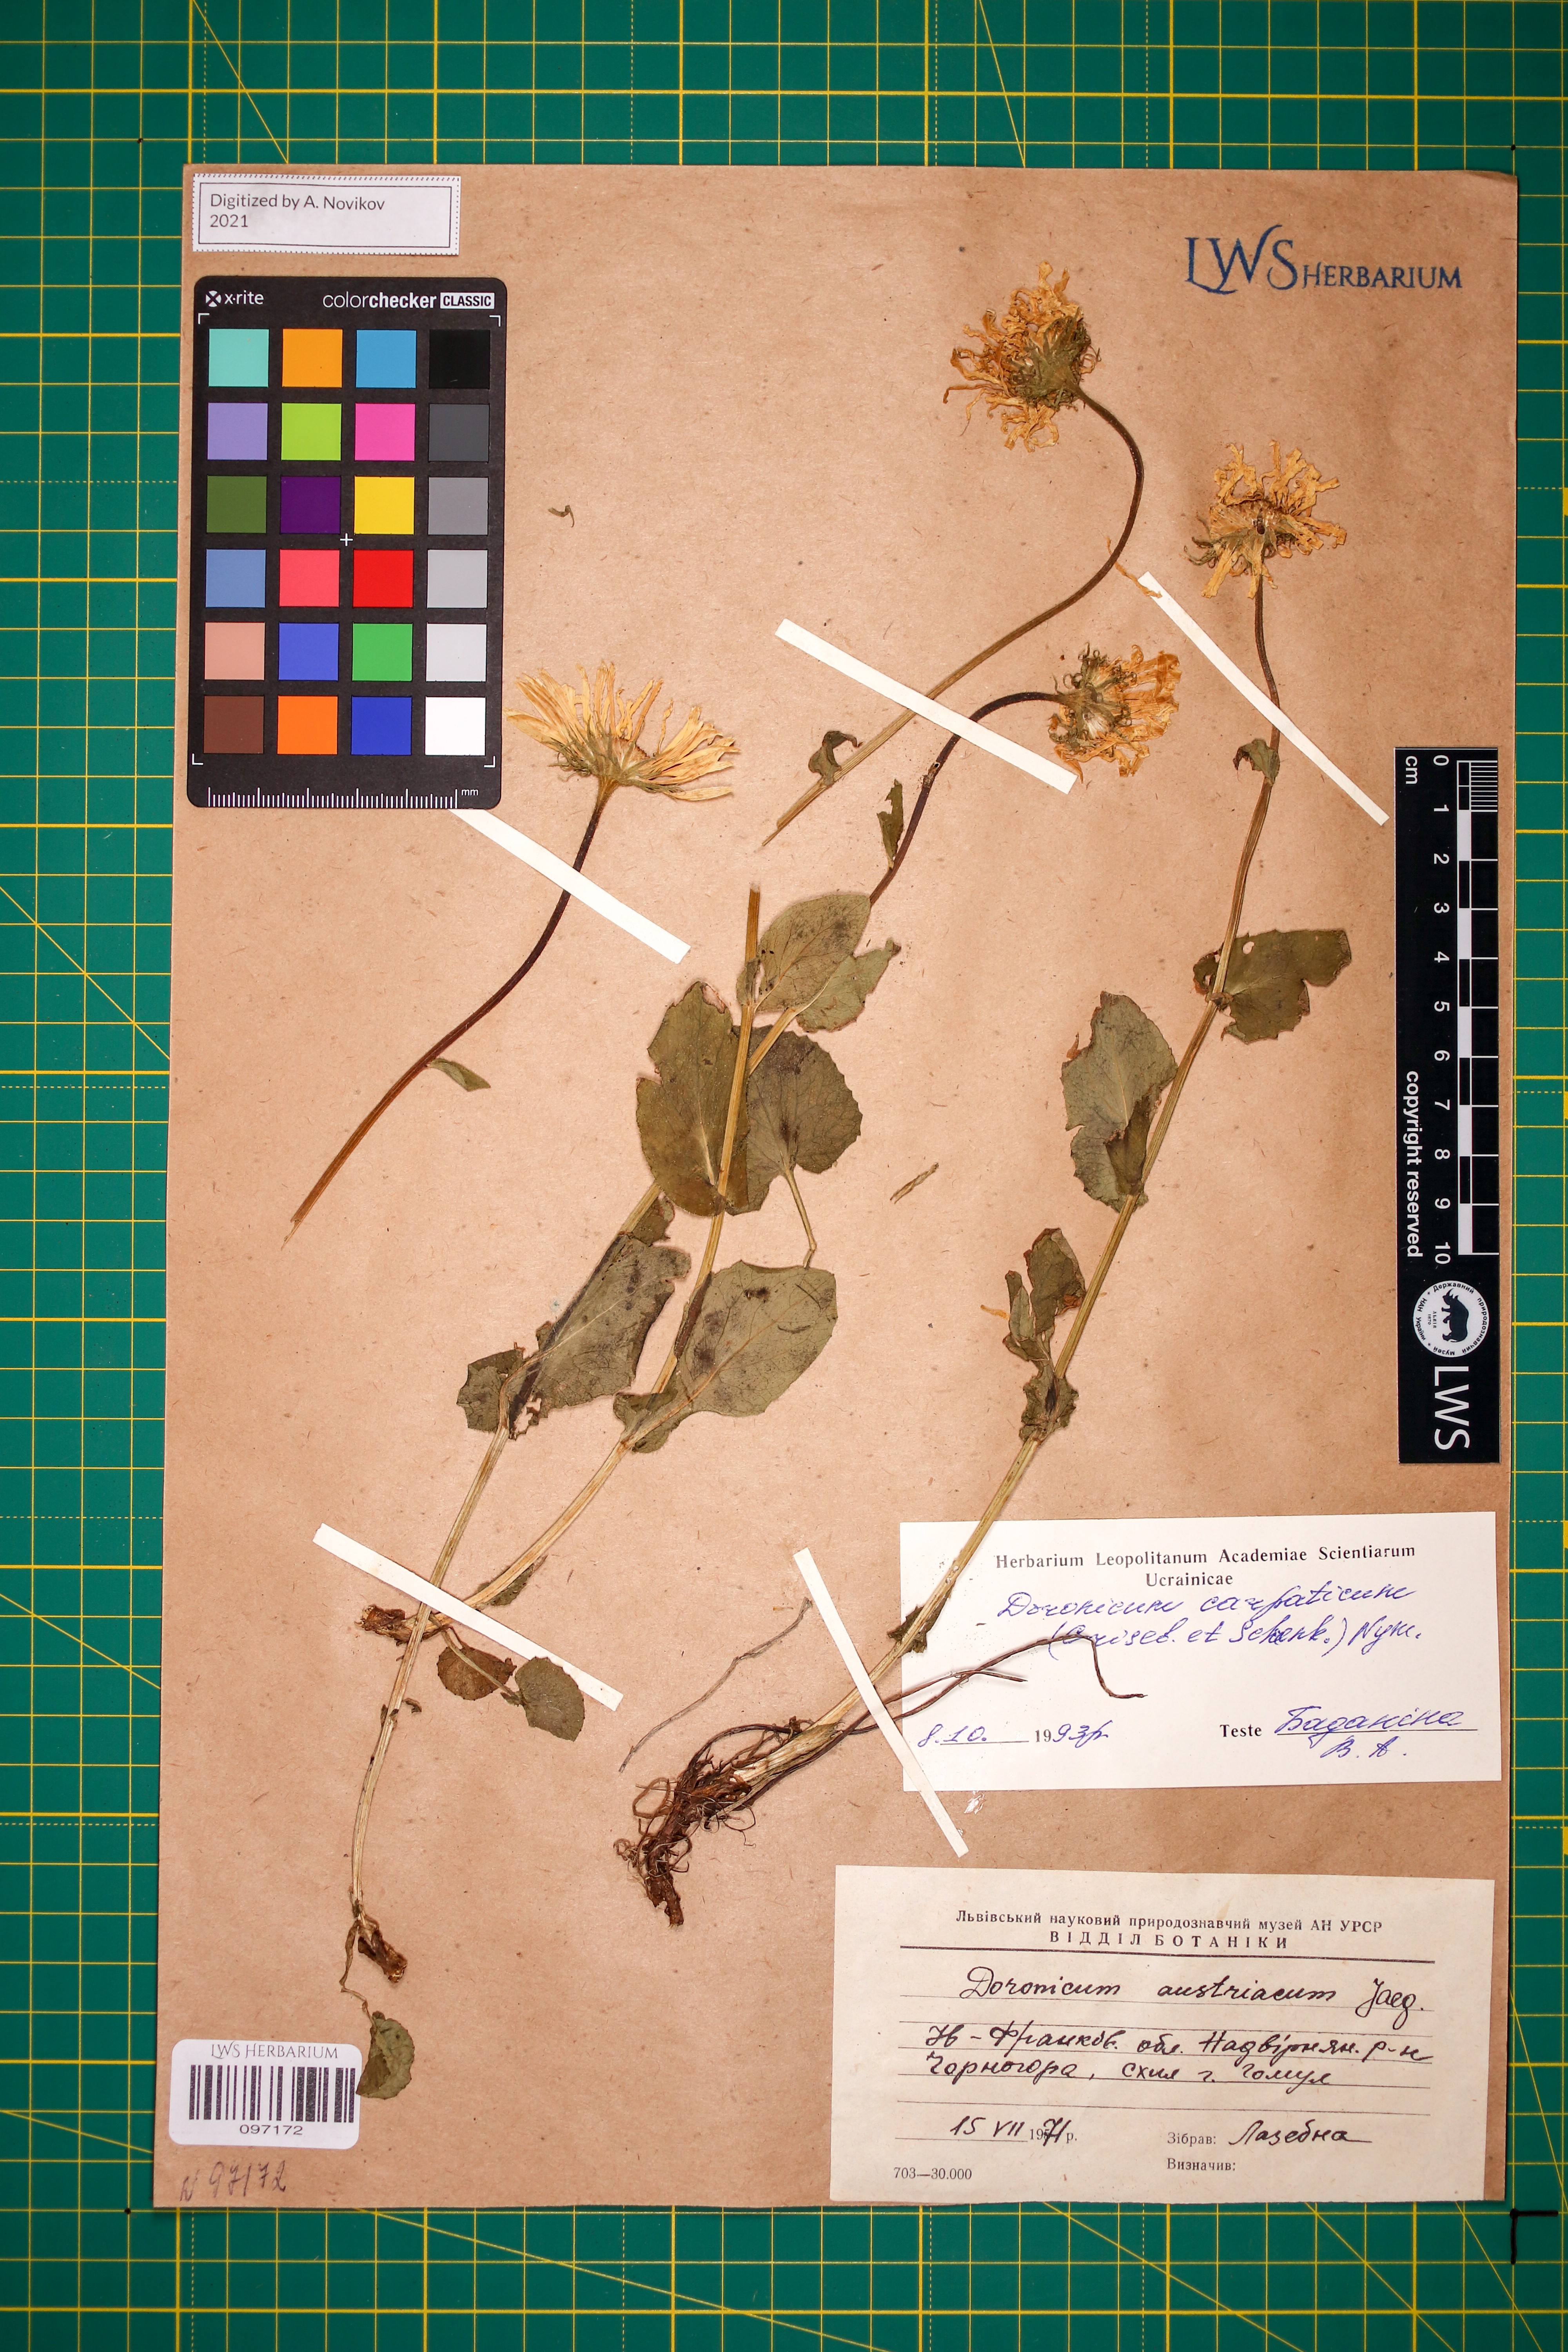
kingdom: Plantae
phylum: Tracheophyta
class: Magnoliopsida
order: Asterales
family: Asteraceae
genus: Doronicum
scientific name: Doronicum carpaticum
